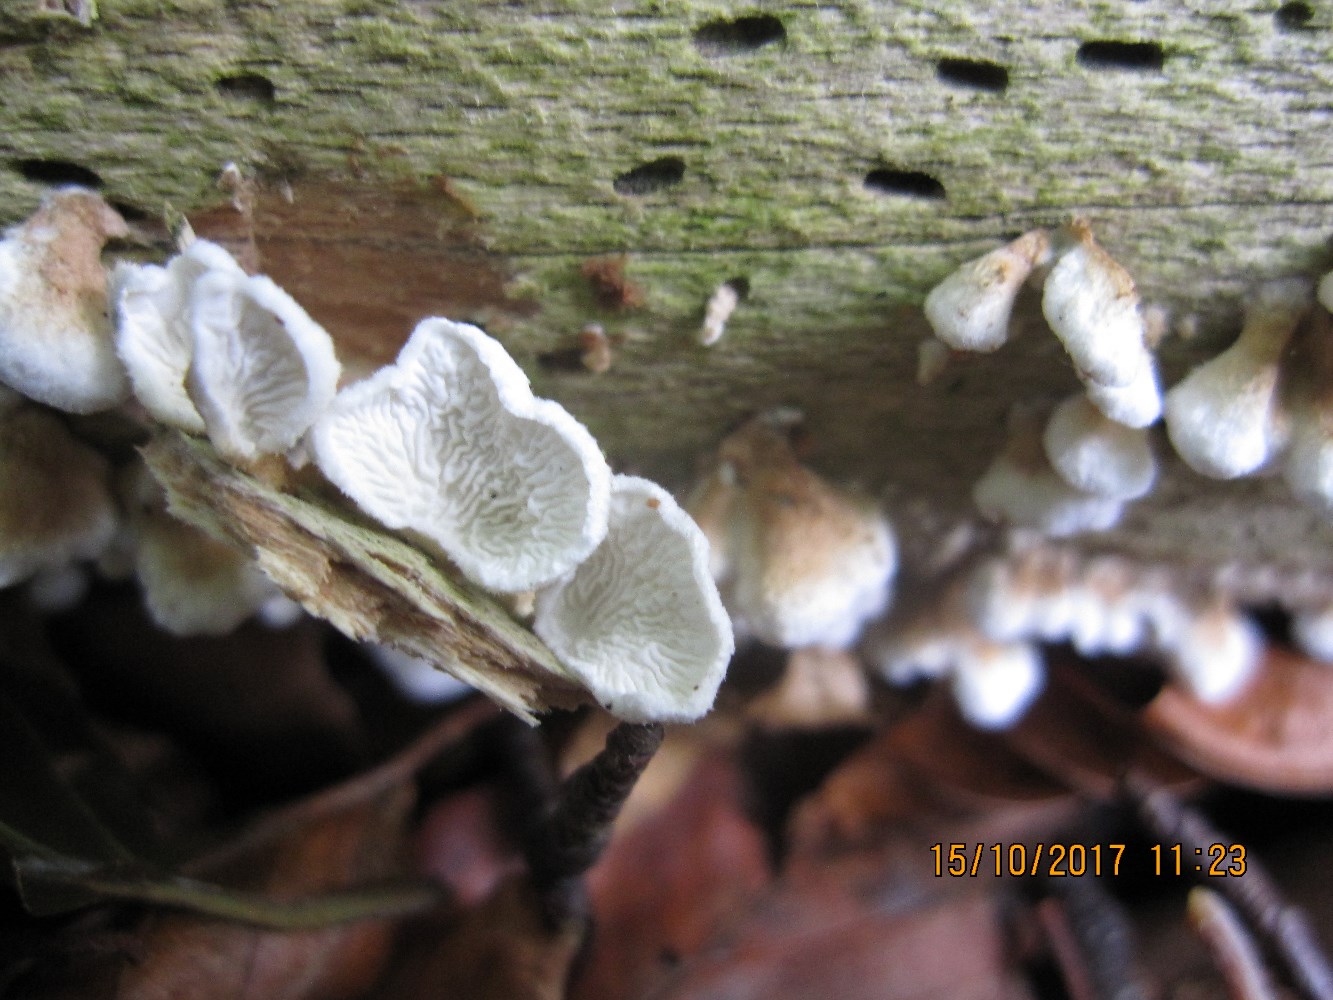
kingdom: Fungi
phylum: Basidiomycota
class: Agaricomycetes
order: Amylocorticiales
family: Amylocorticiaceae
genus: Plicaturopsis
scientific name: Plicaturopsis crispa
